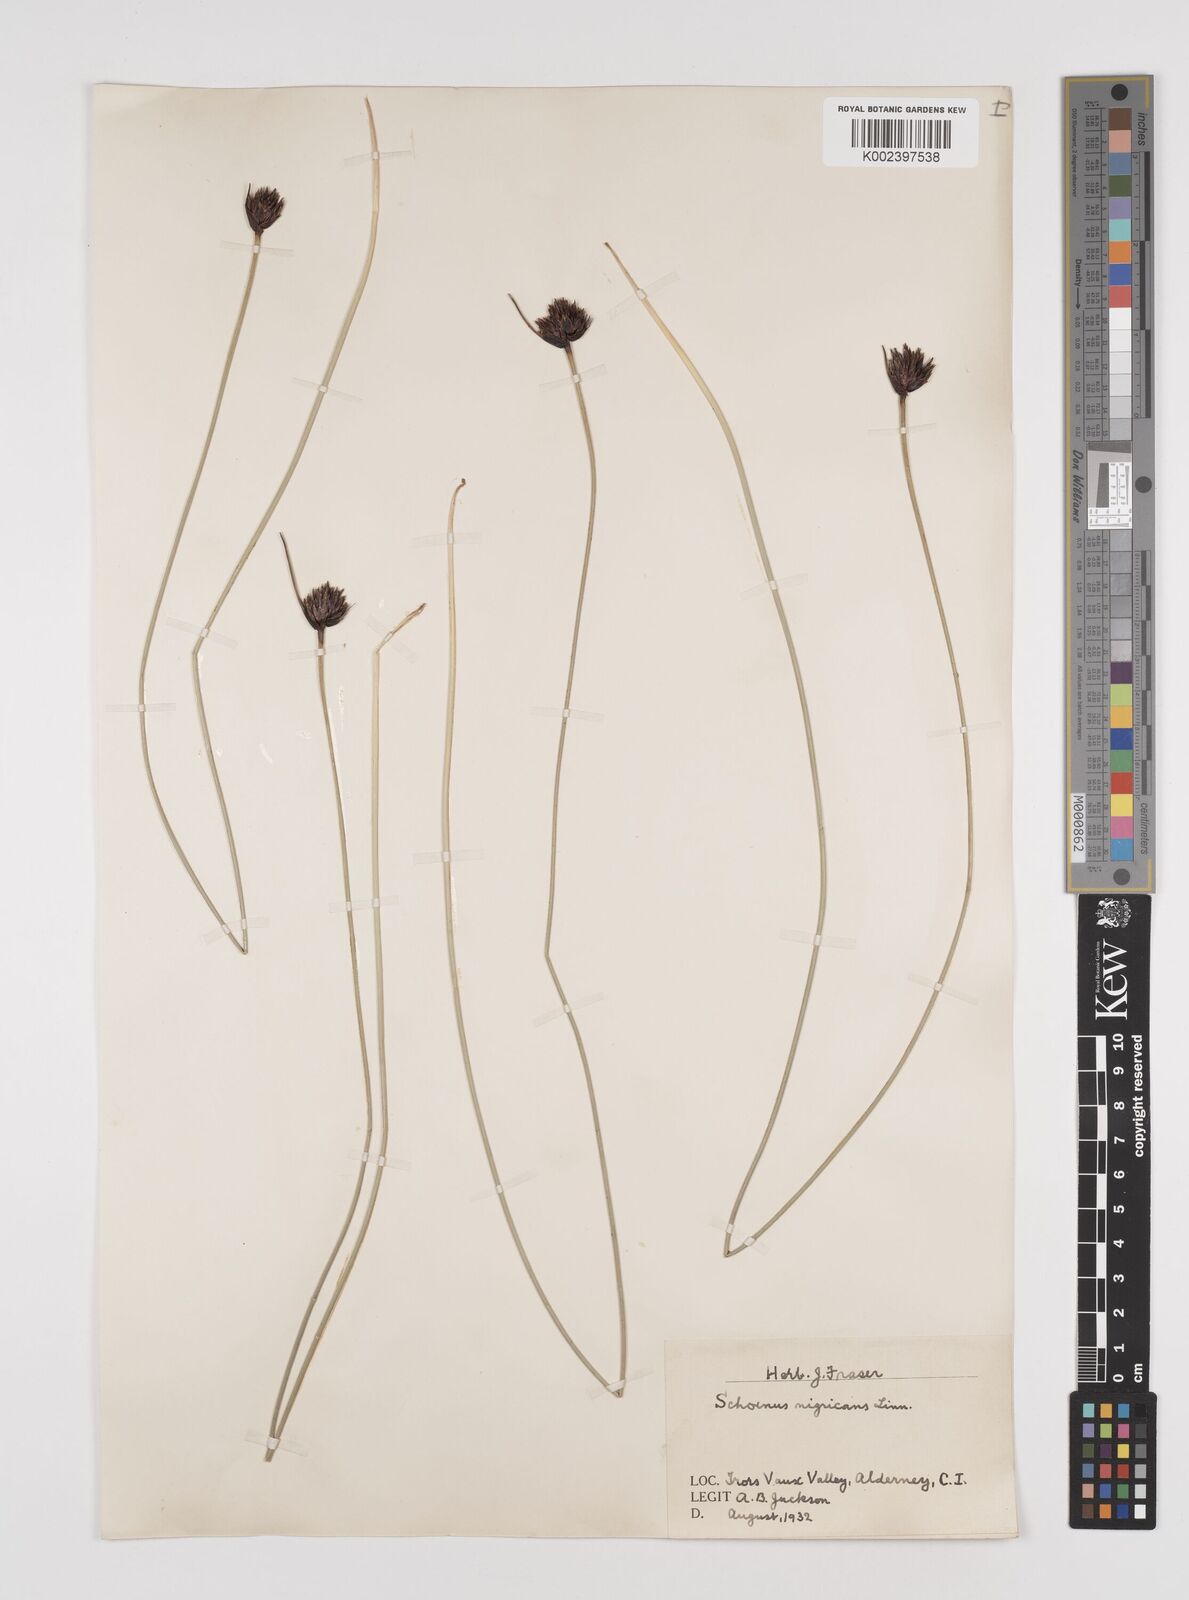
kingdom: Plantae
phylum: Tracheophyta
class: Liliopsida
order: Poales
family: Cyperaceae
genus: Schoenus
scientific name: Schoenus nigricans
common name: Black bog-rush
